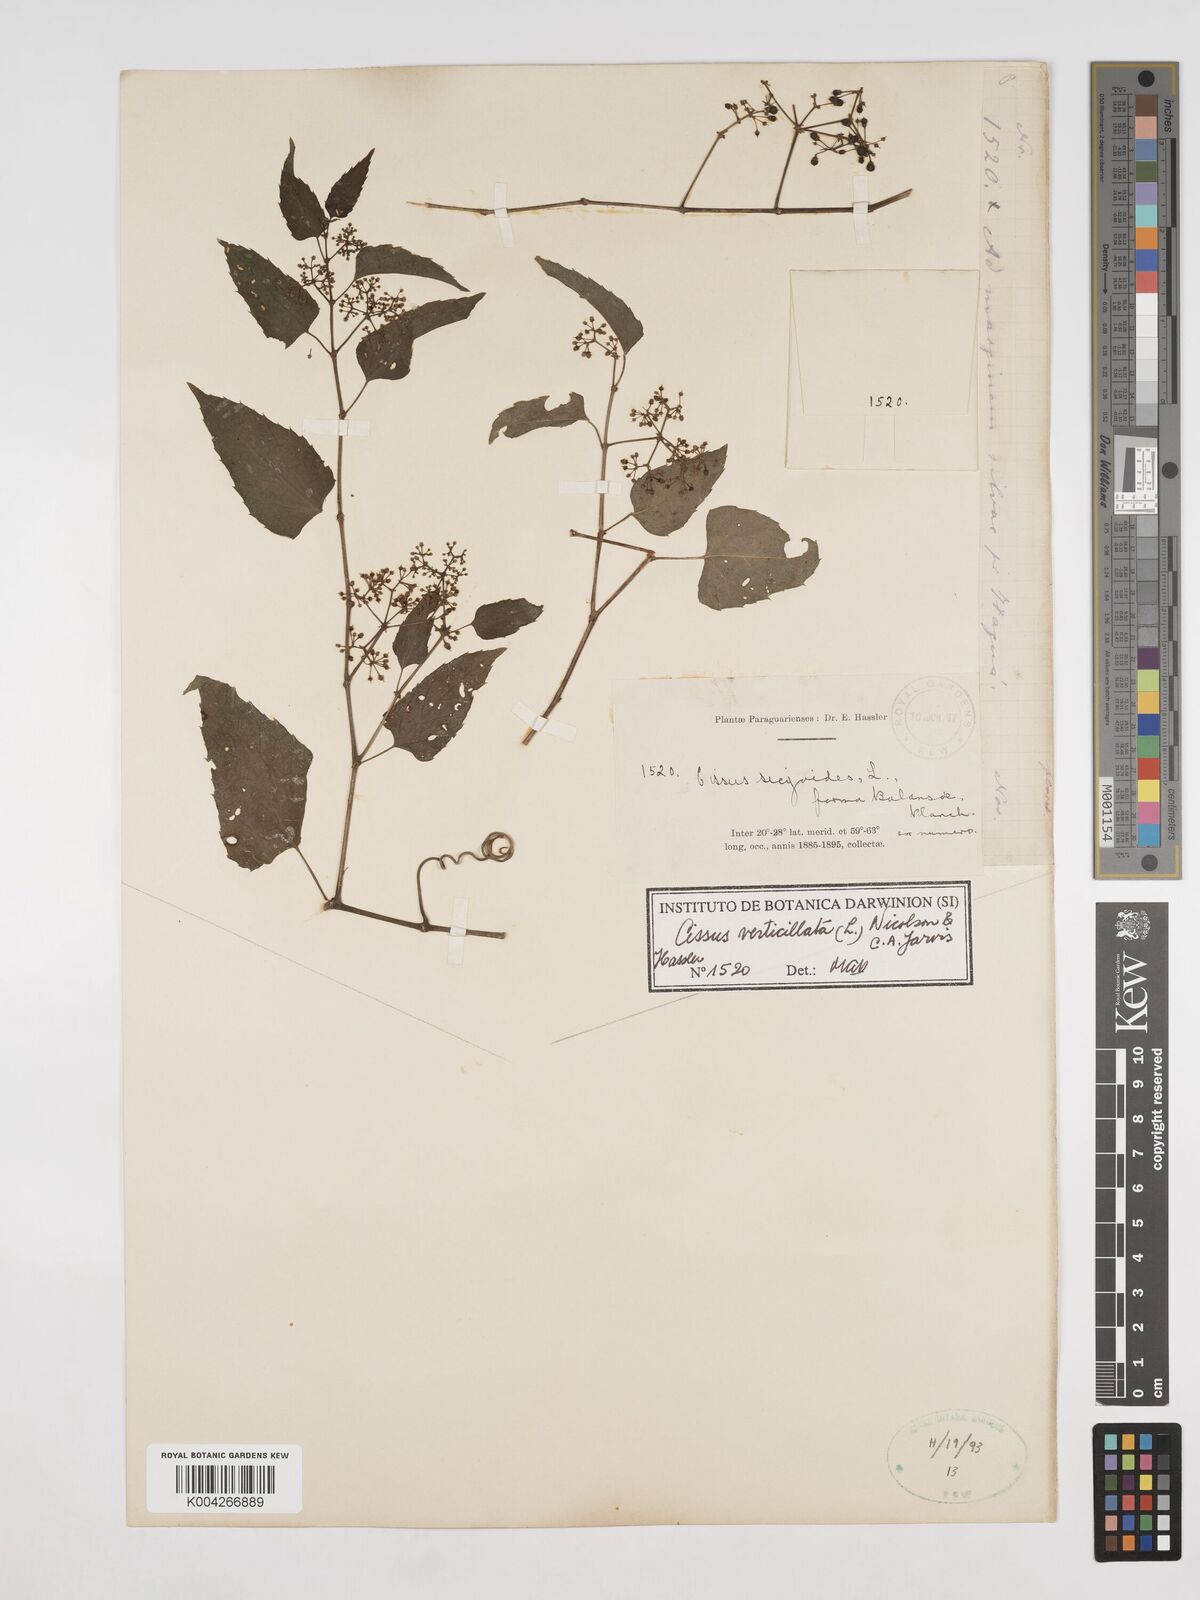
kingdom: Plantae
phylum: Tracheophyta
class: Magnoliopsida
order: Vitales
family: Vitaceae
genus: Cissus
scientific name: Cissus verticillata
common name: Princess vine
